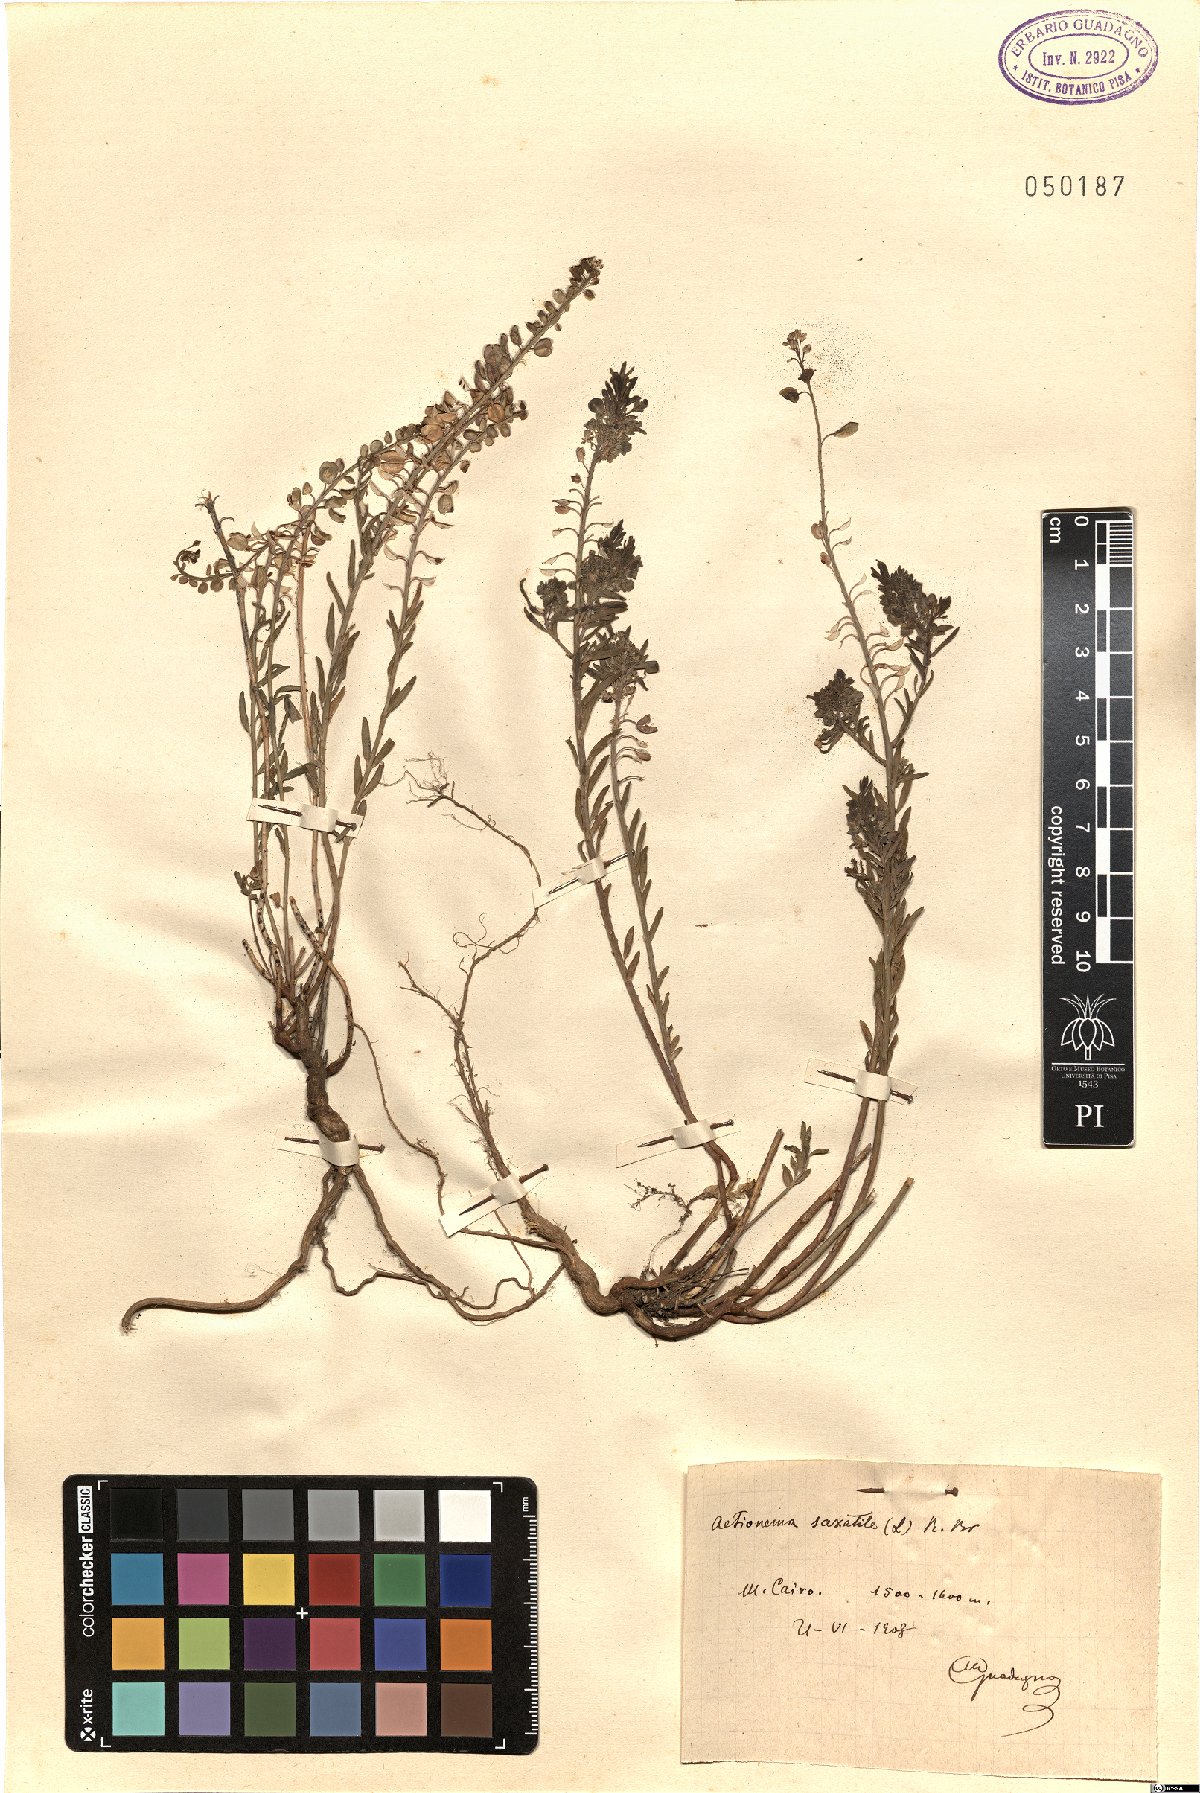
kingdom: Plantae
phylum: Tracheophyta
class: Magnoliopsida
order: Brassicales
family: Brassicaceae
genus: Aethionema
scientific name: Aethionema saxatile
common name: Burnt candytuft
